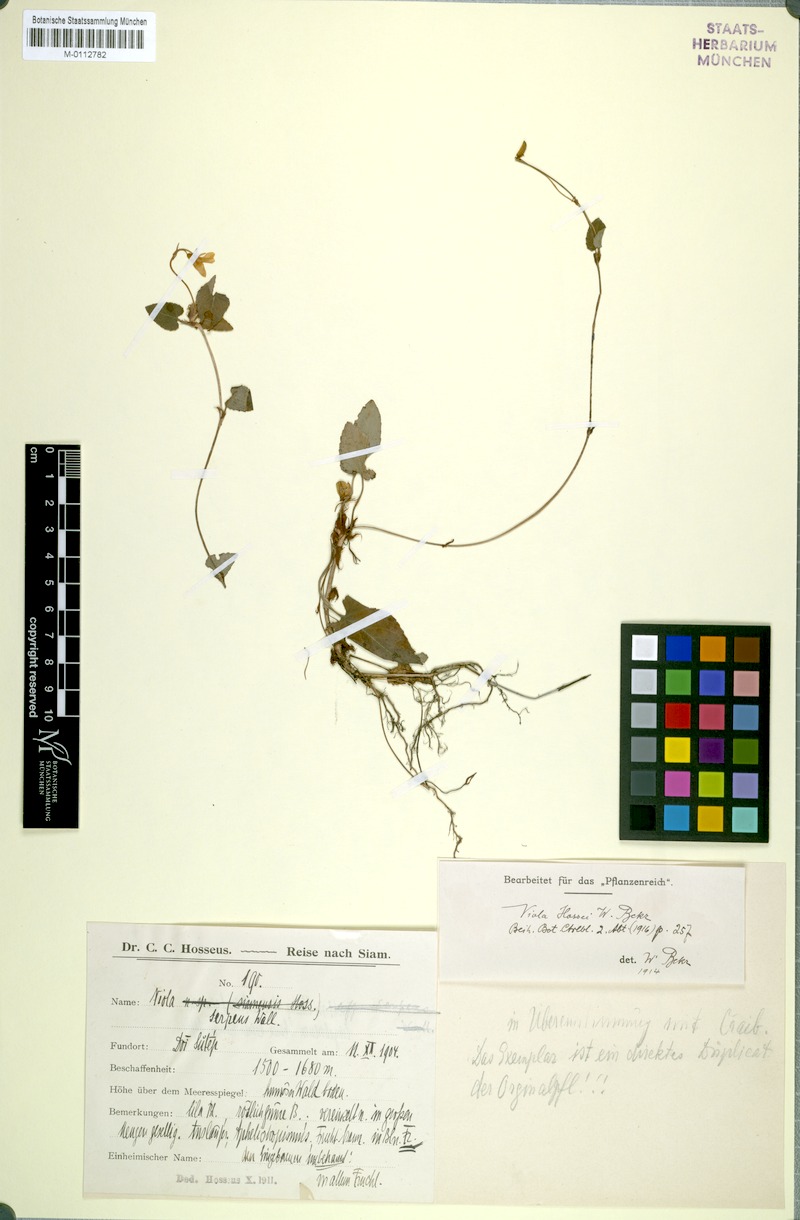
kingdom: Plantae
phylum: Tracheophyta
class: Magnoliopsida
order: Malpighiales
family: Violaceae
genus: Viola
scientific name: Viola sumatrana
